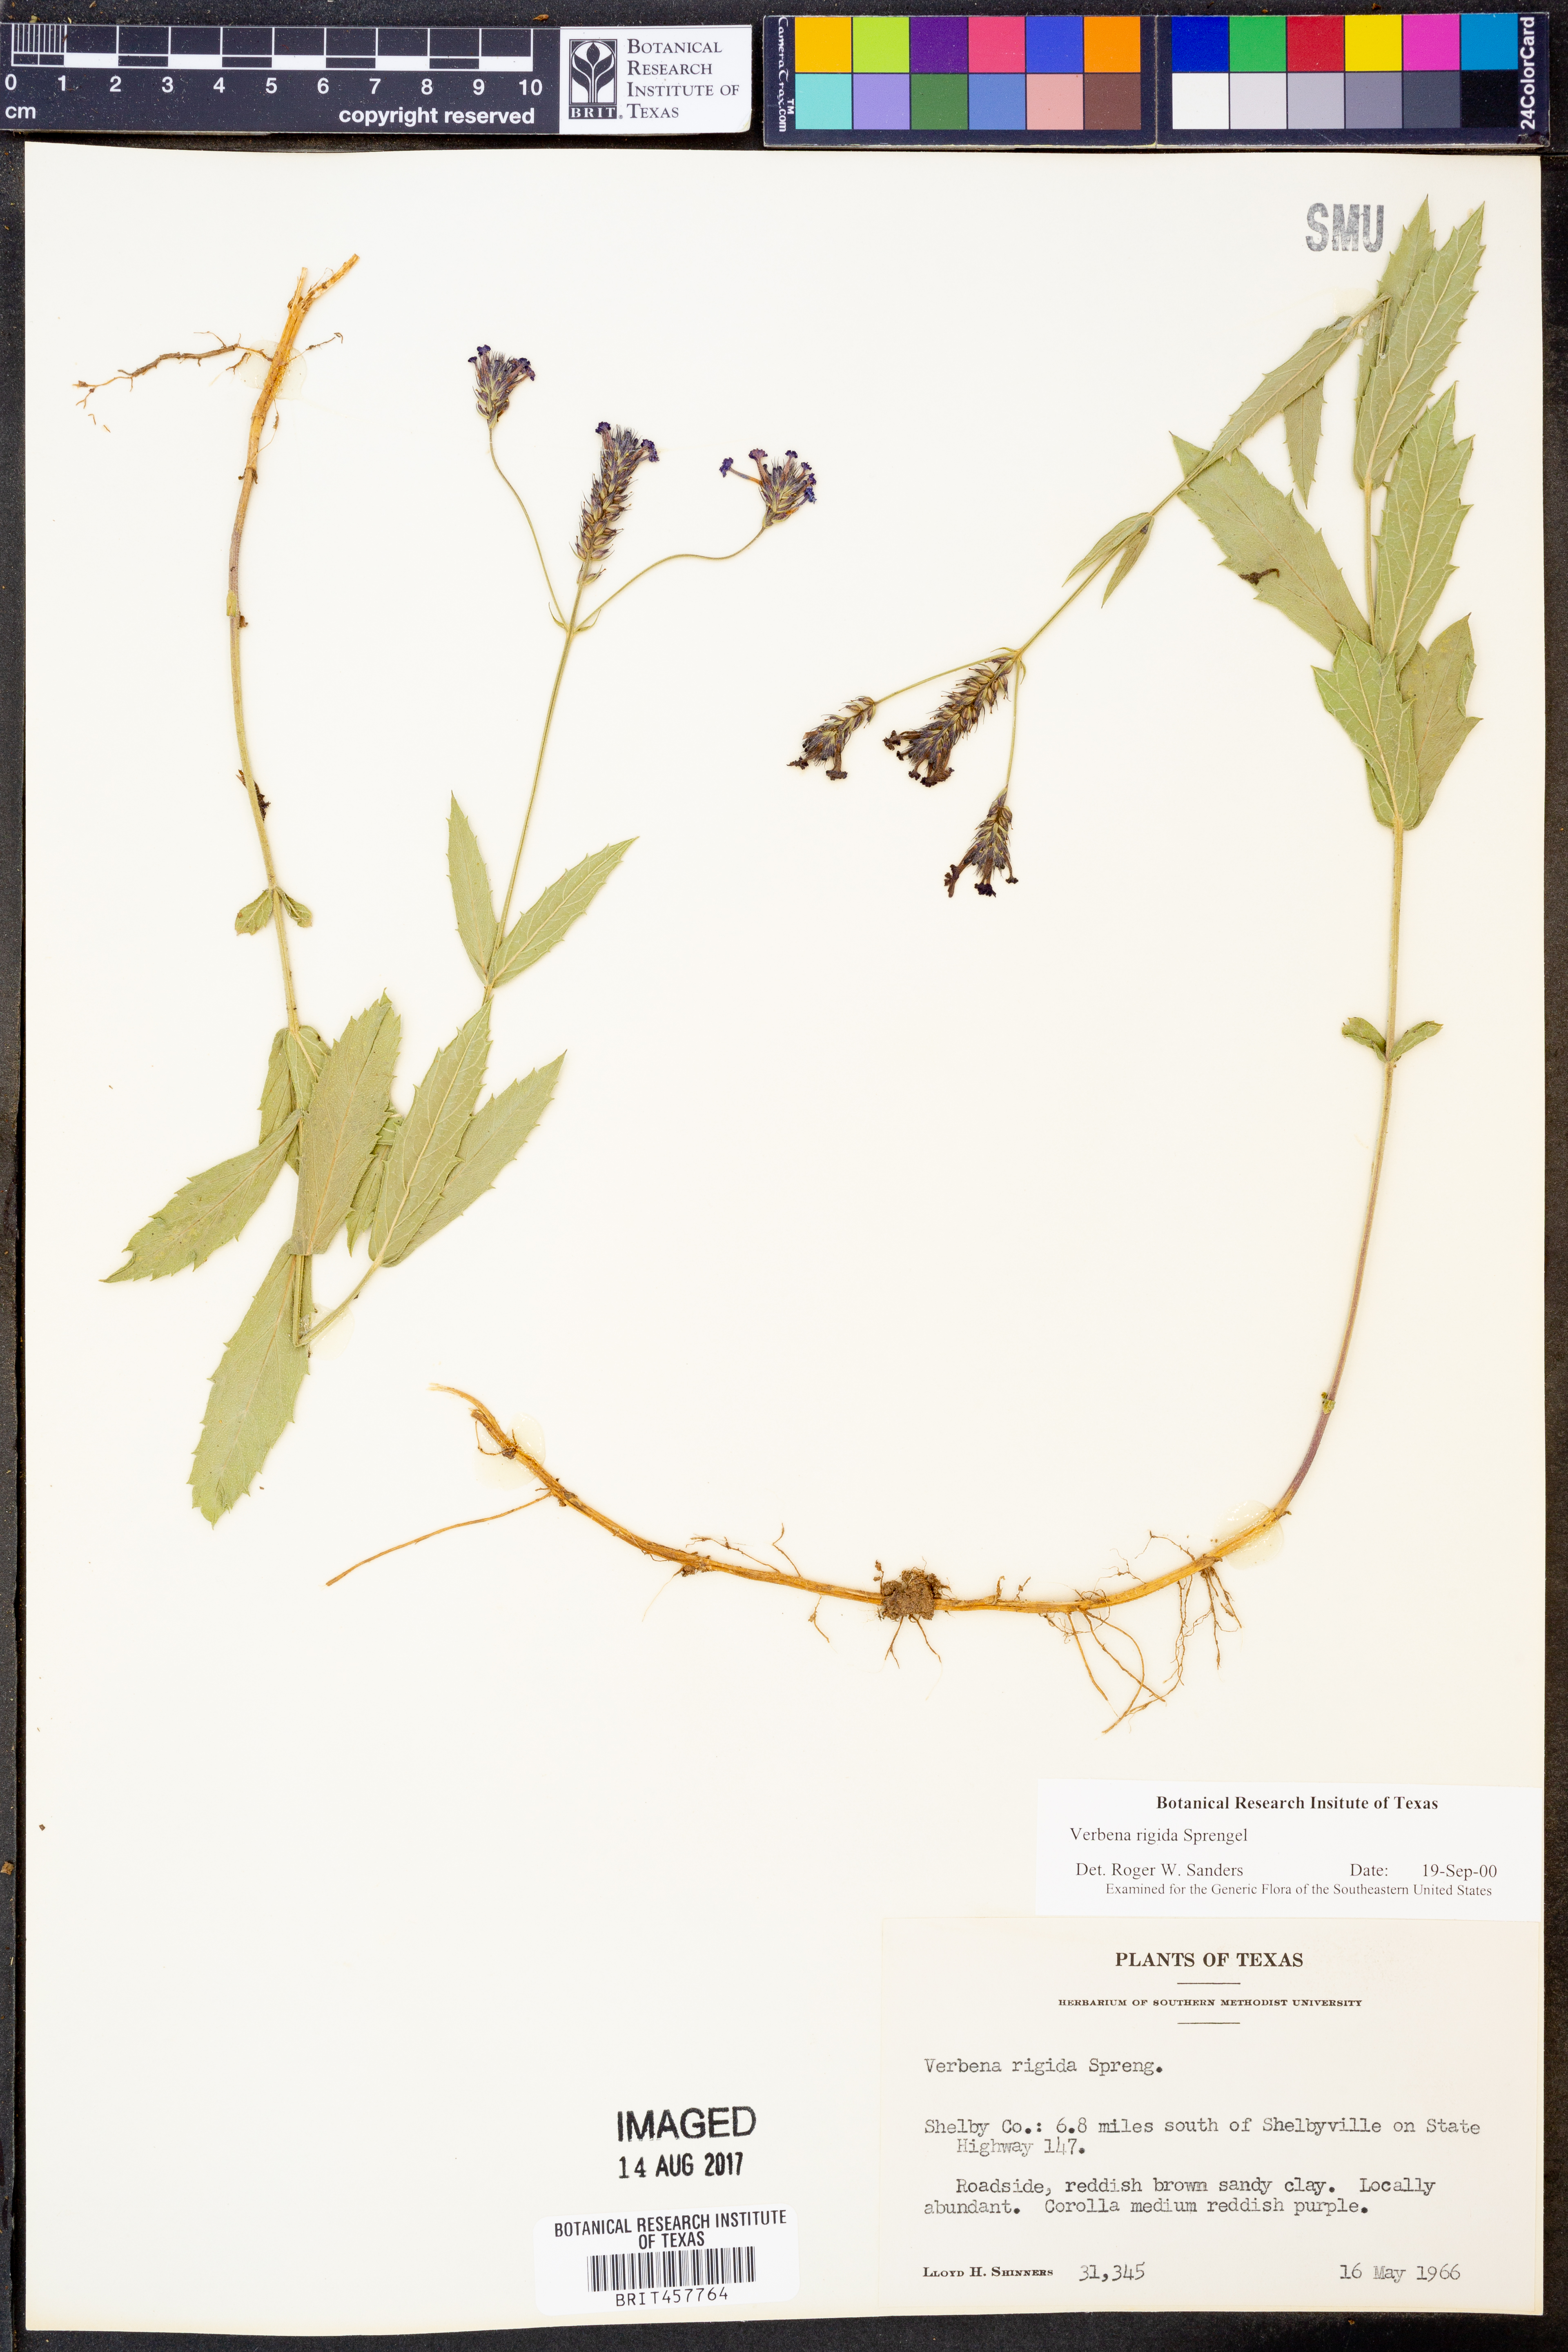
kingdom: Plantae
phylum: Tracheophyta
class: Magnoliopsida
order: Lamiales
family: Verbenaceae
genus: Verbena
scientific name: Verbena rigida
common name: Slender vervain
